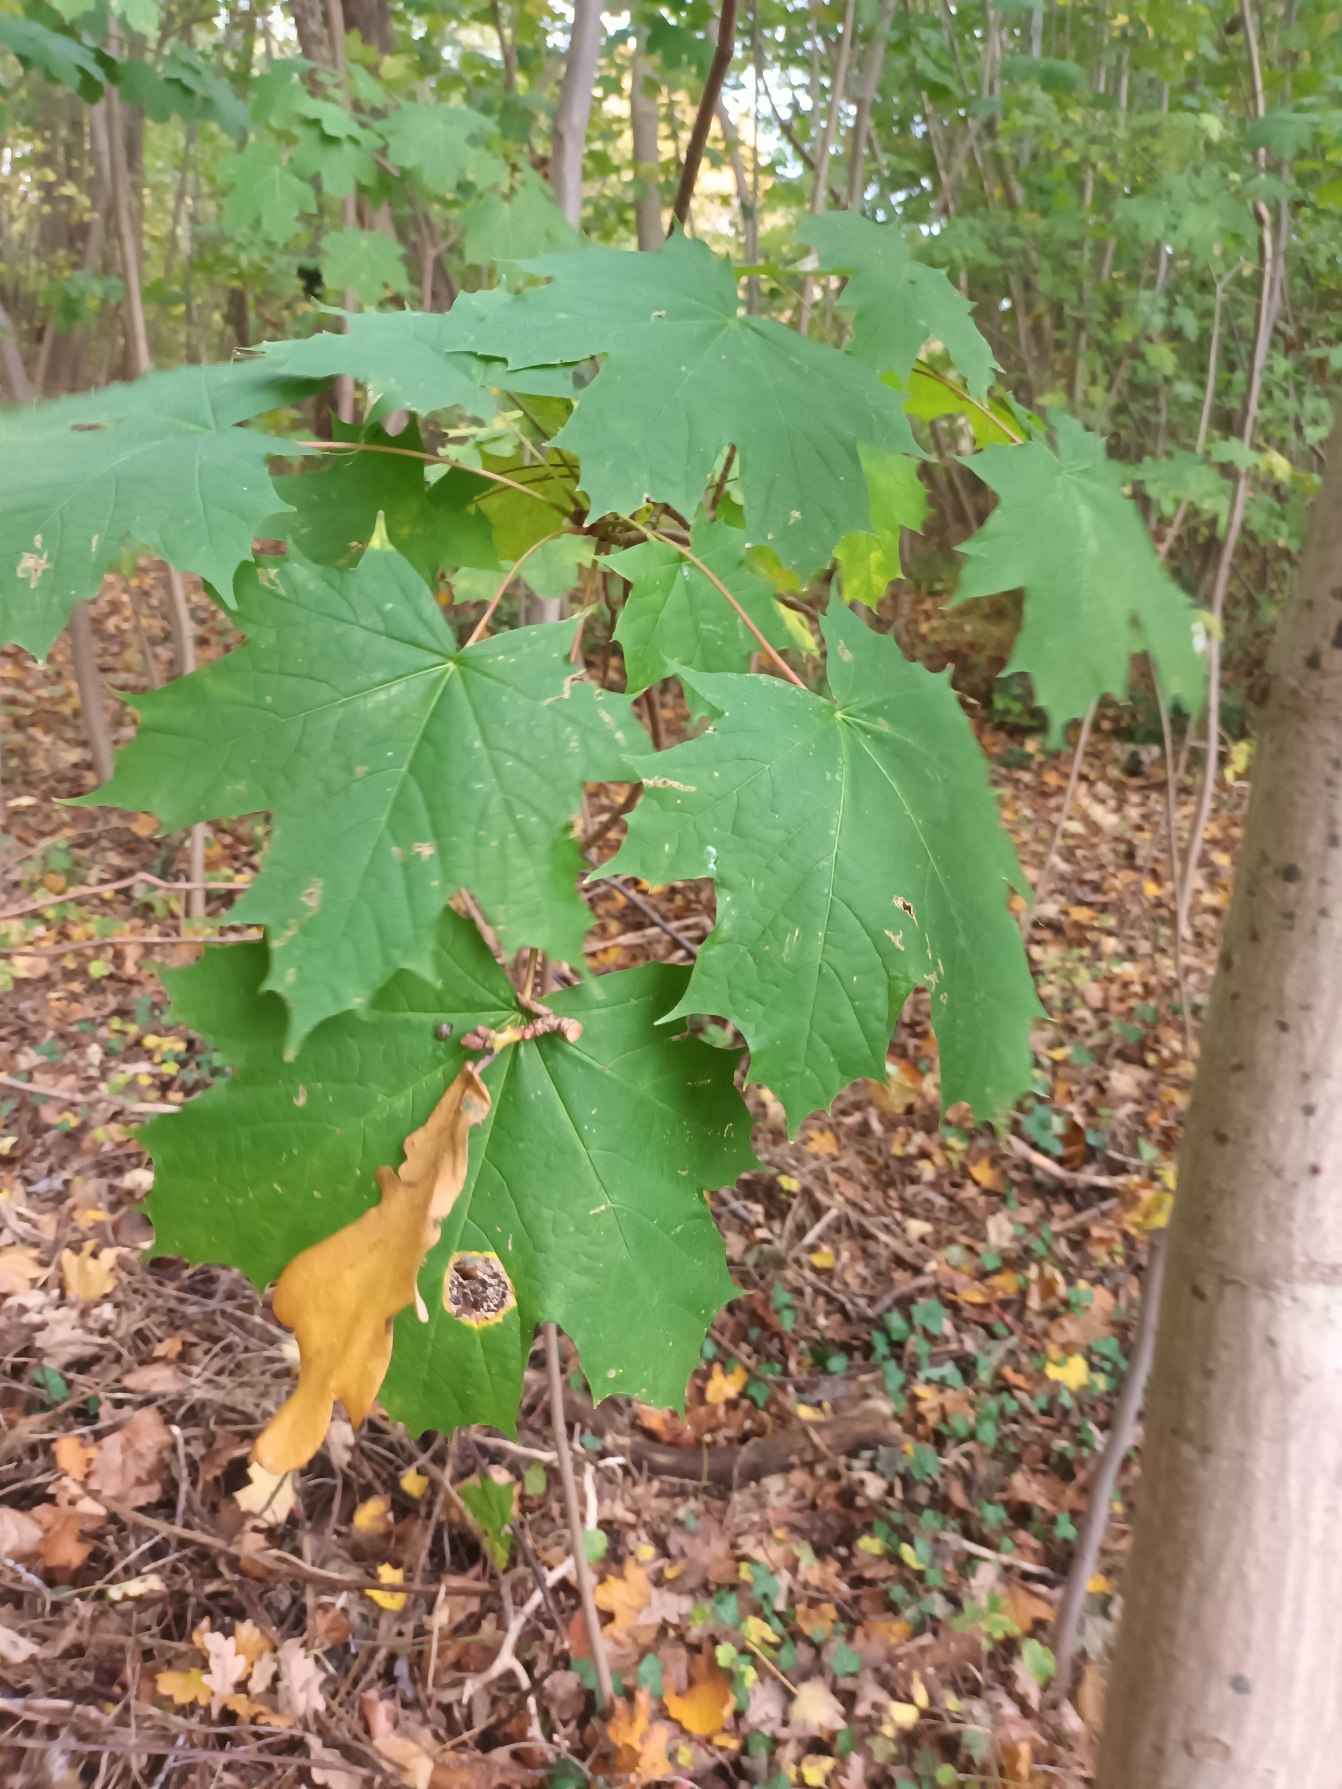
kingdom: Plantae
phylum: Tracheophyta
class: Magnoliopsida
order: Sapindales
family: Sapindaceae
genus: Acer
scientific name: Acer platanoides
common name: Spids-løn
